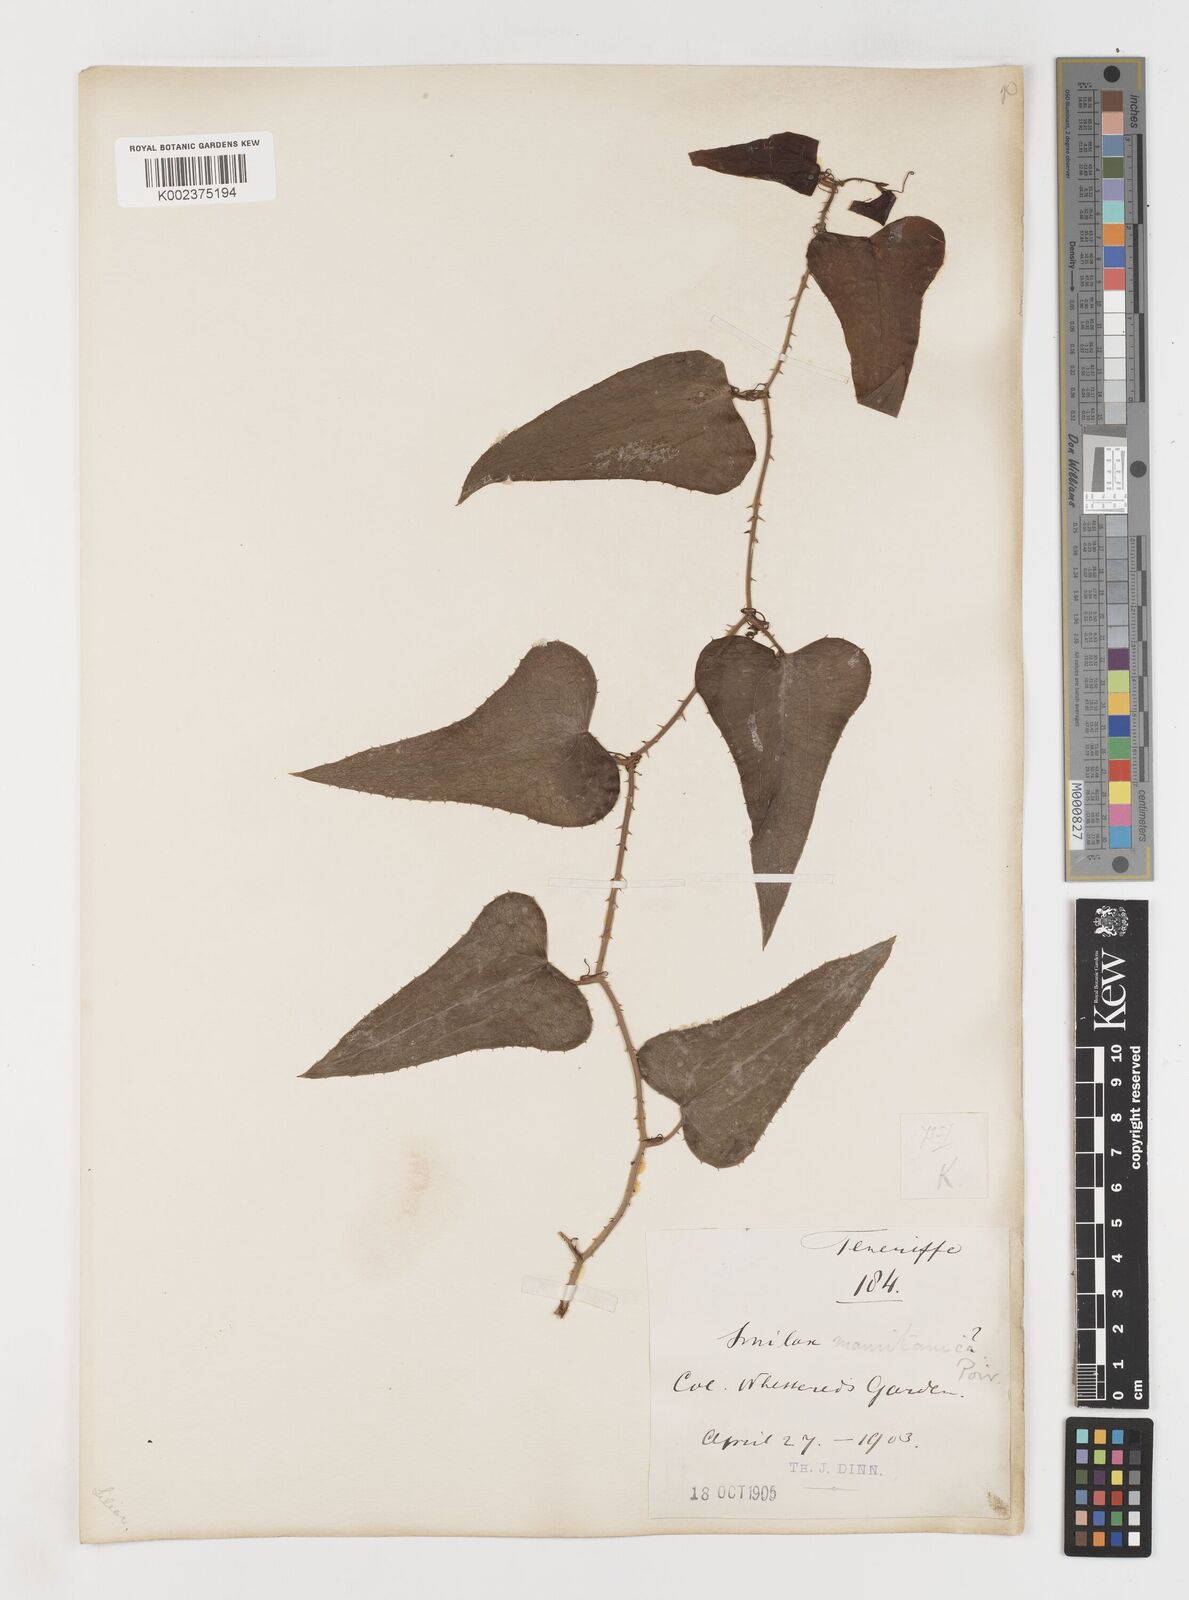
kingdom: Plantae
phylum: Tracheophyta
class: Liliopsida
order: Liliales
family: Smilacaceae
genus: Smilax
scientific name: Smilax aspera
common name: Common smilax
